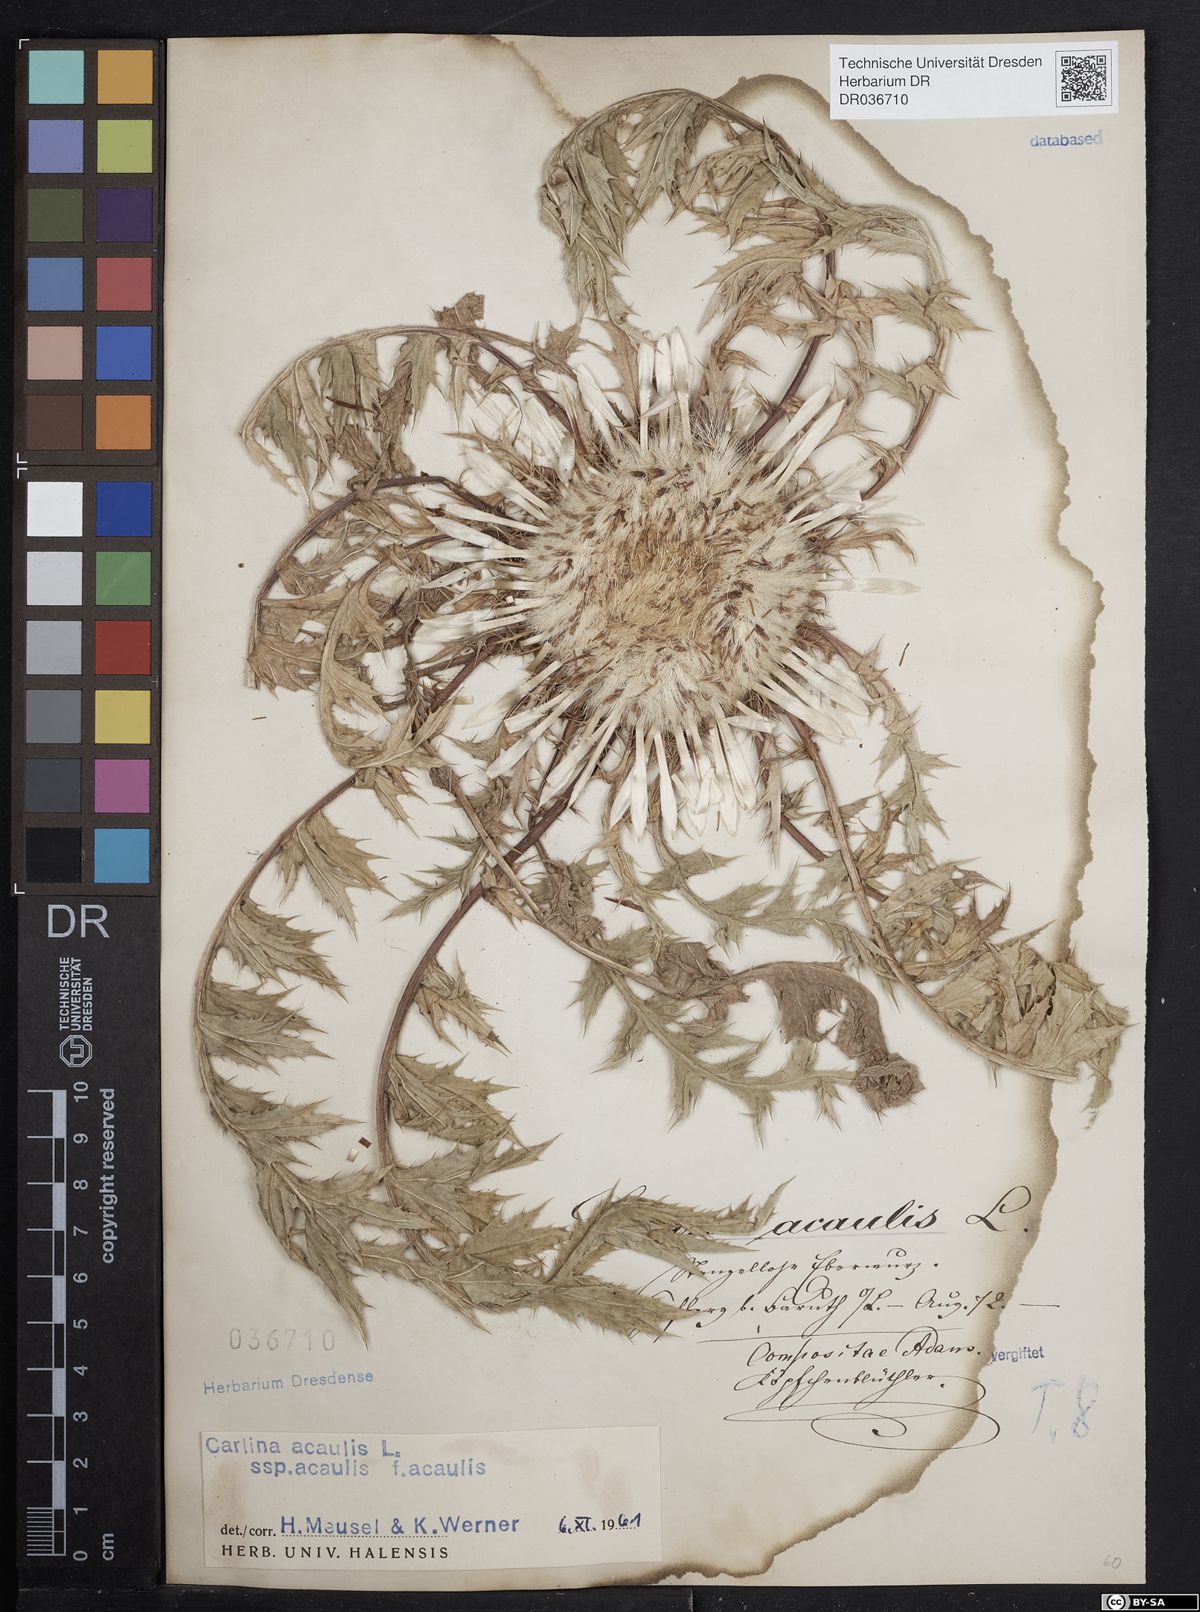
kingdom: Plantae
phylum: Tracheophyta
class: Magnoliopsida
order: Asterales
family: Asteraceae
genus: Carlina
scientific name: Carlina acaulis
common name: Stemless carline thistle
